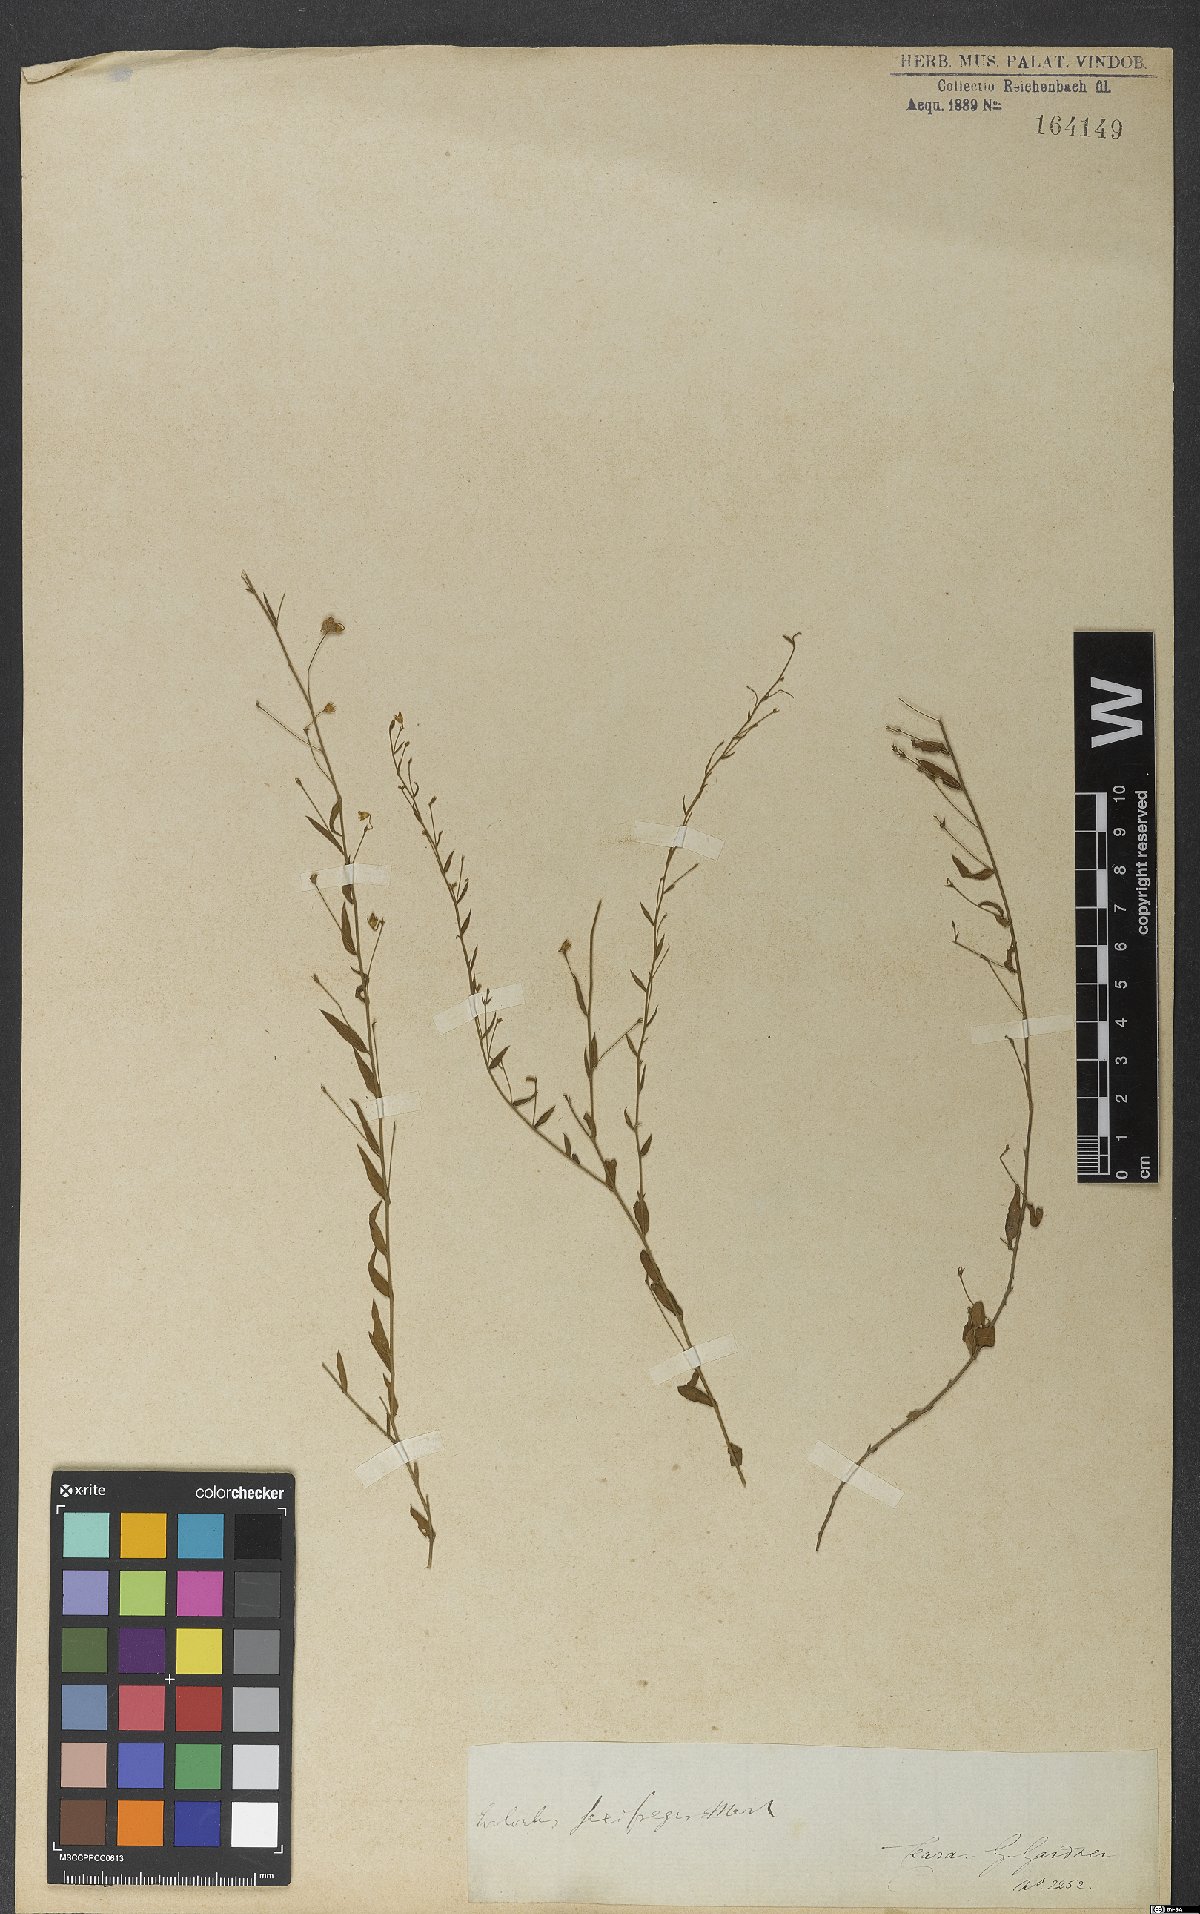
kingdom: Plantae
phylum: Tracheophyta
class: Magnoliopsida
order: Solanales
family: Convolvulaceae
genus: Evolvulus
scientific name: Evolvulus saxifragus
